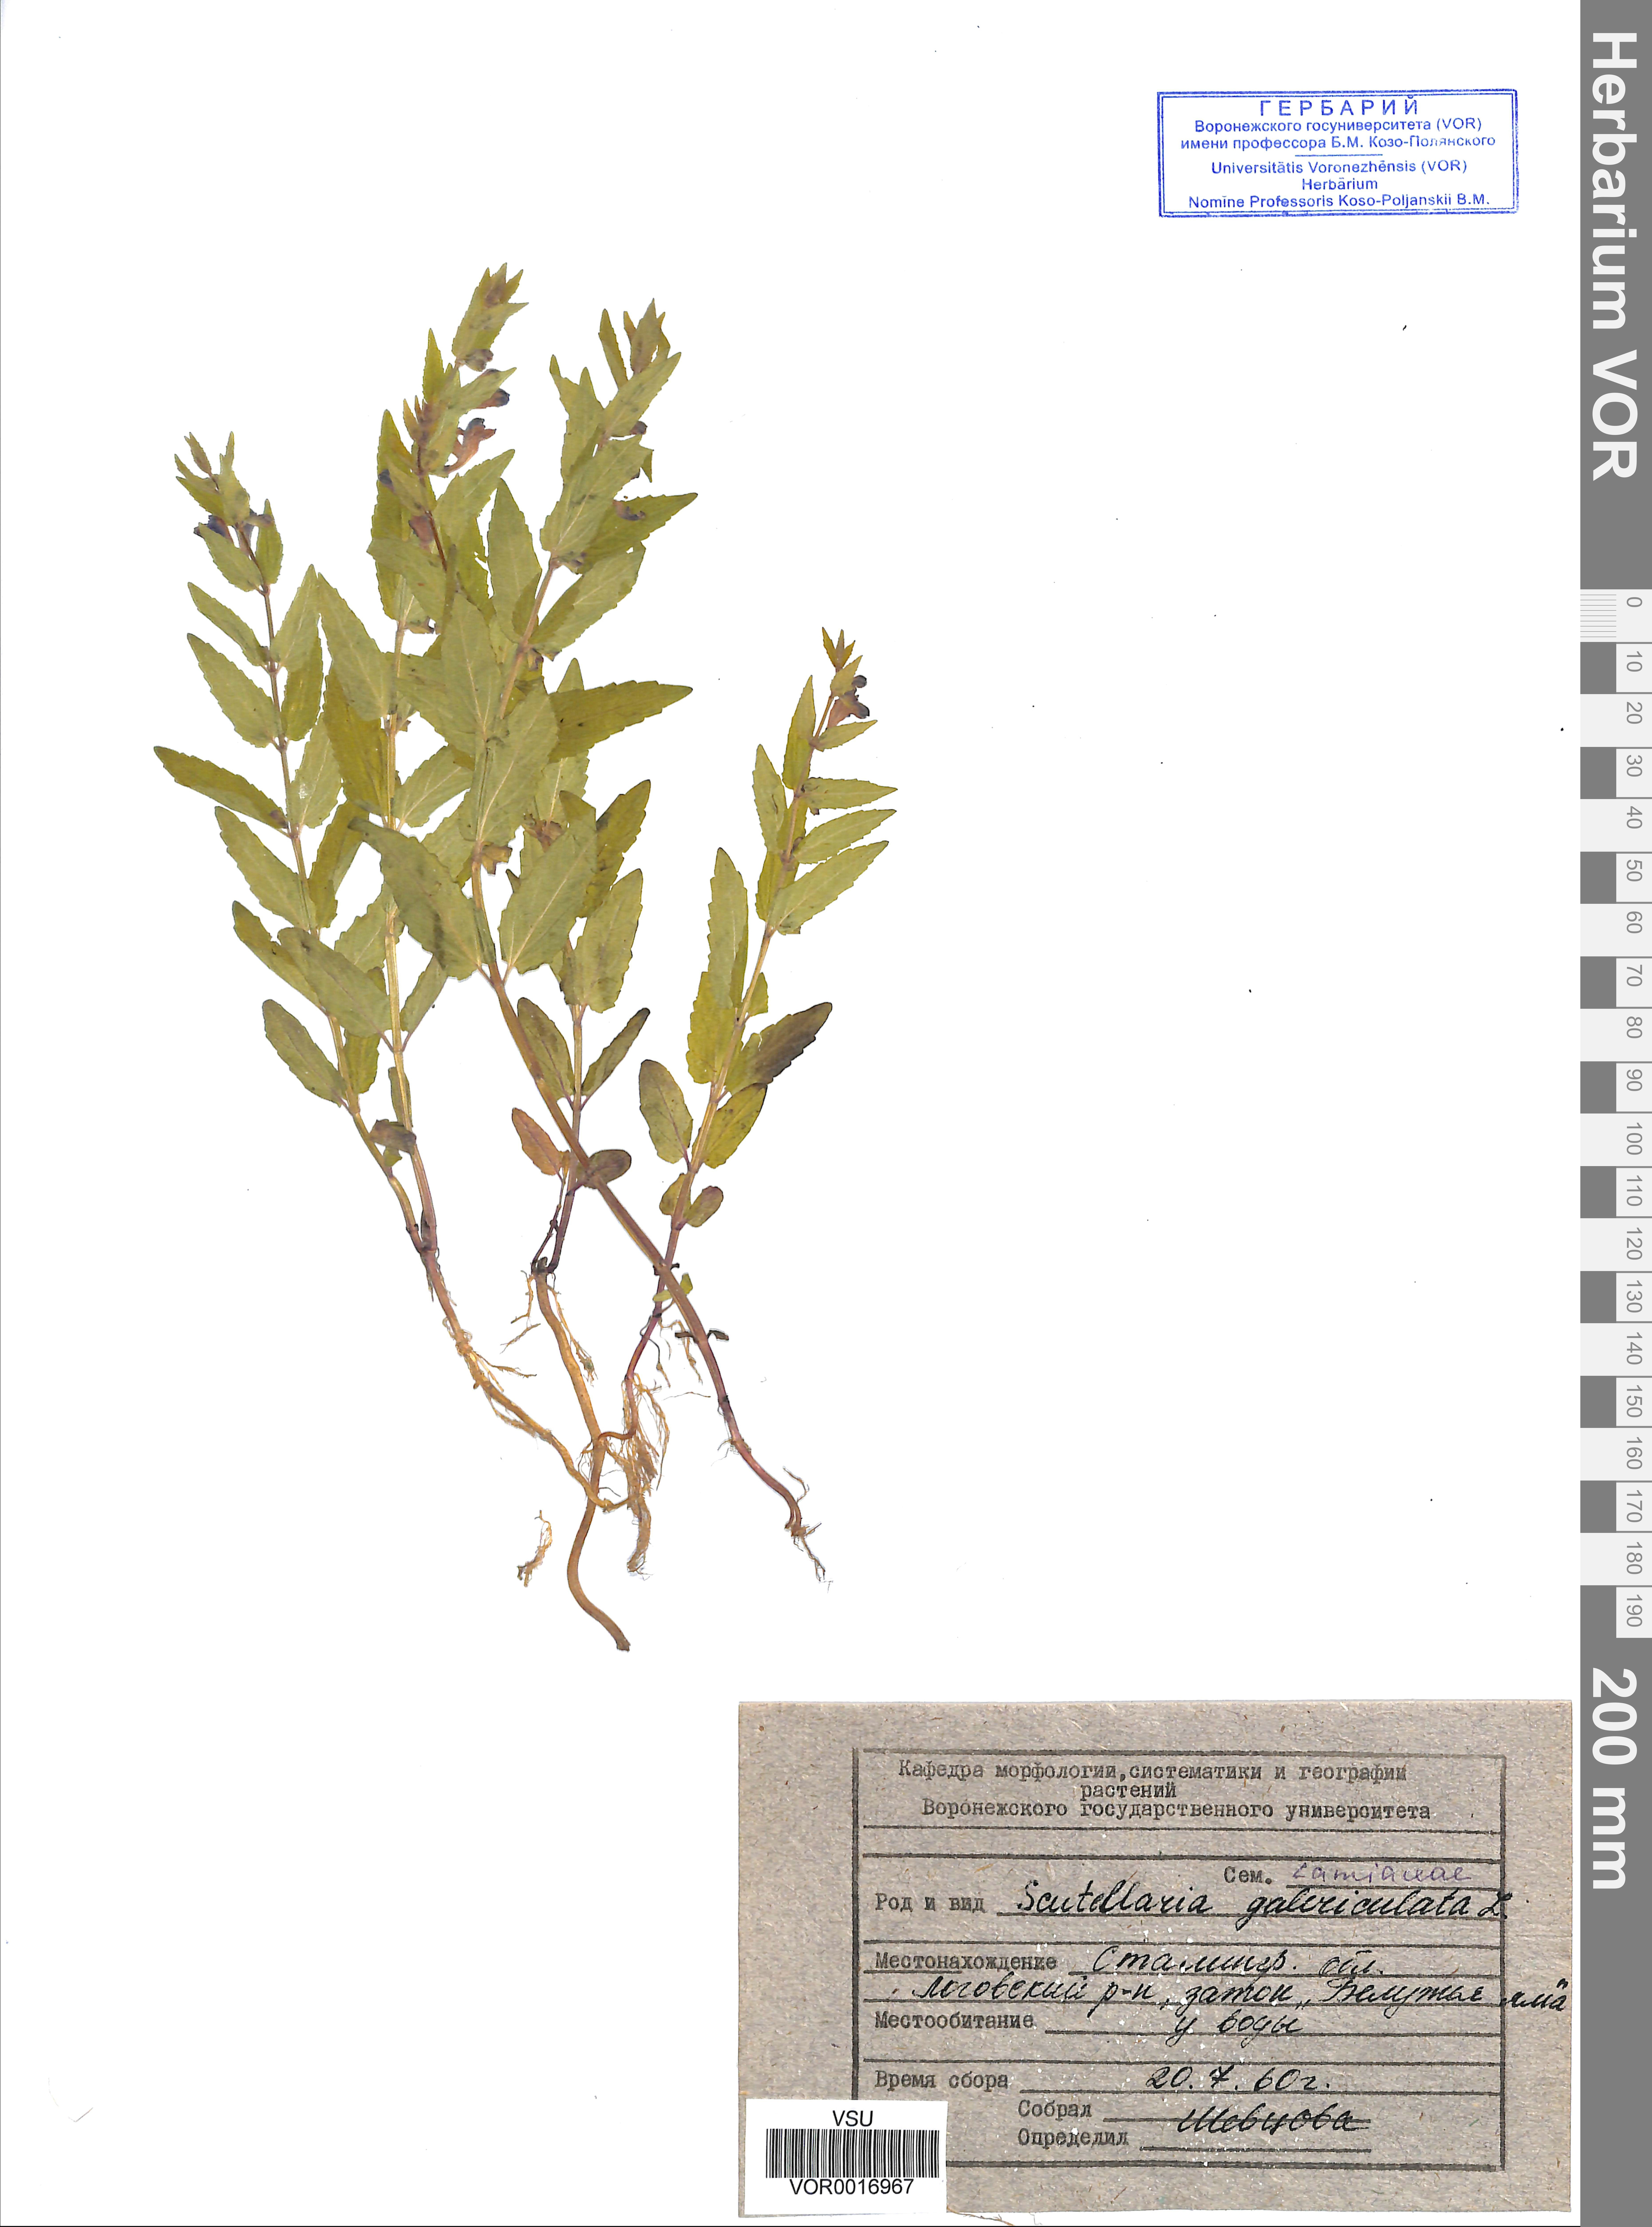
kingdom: Plantae
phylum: Tracheophyta
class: Magnoliopsida
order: Lamiales
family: Lamiaceae
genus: Scutellaria
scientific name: Scutellaria galericulata
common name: Skullcap
